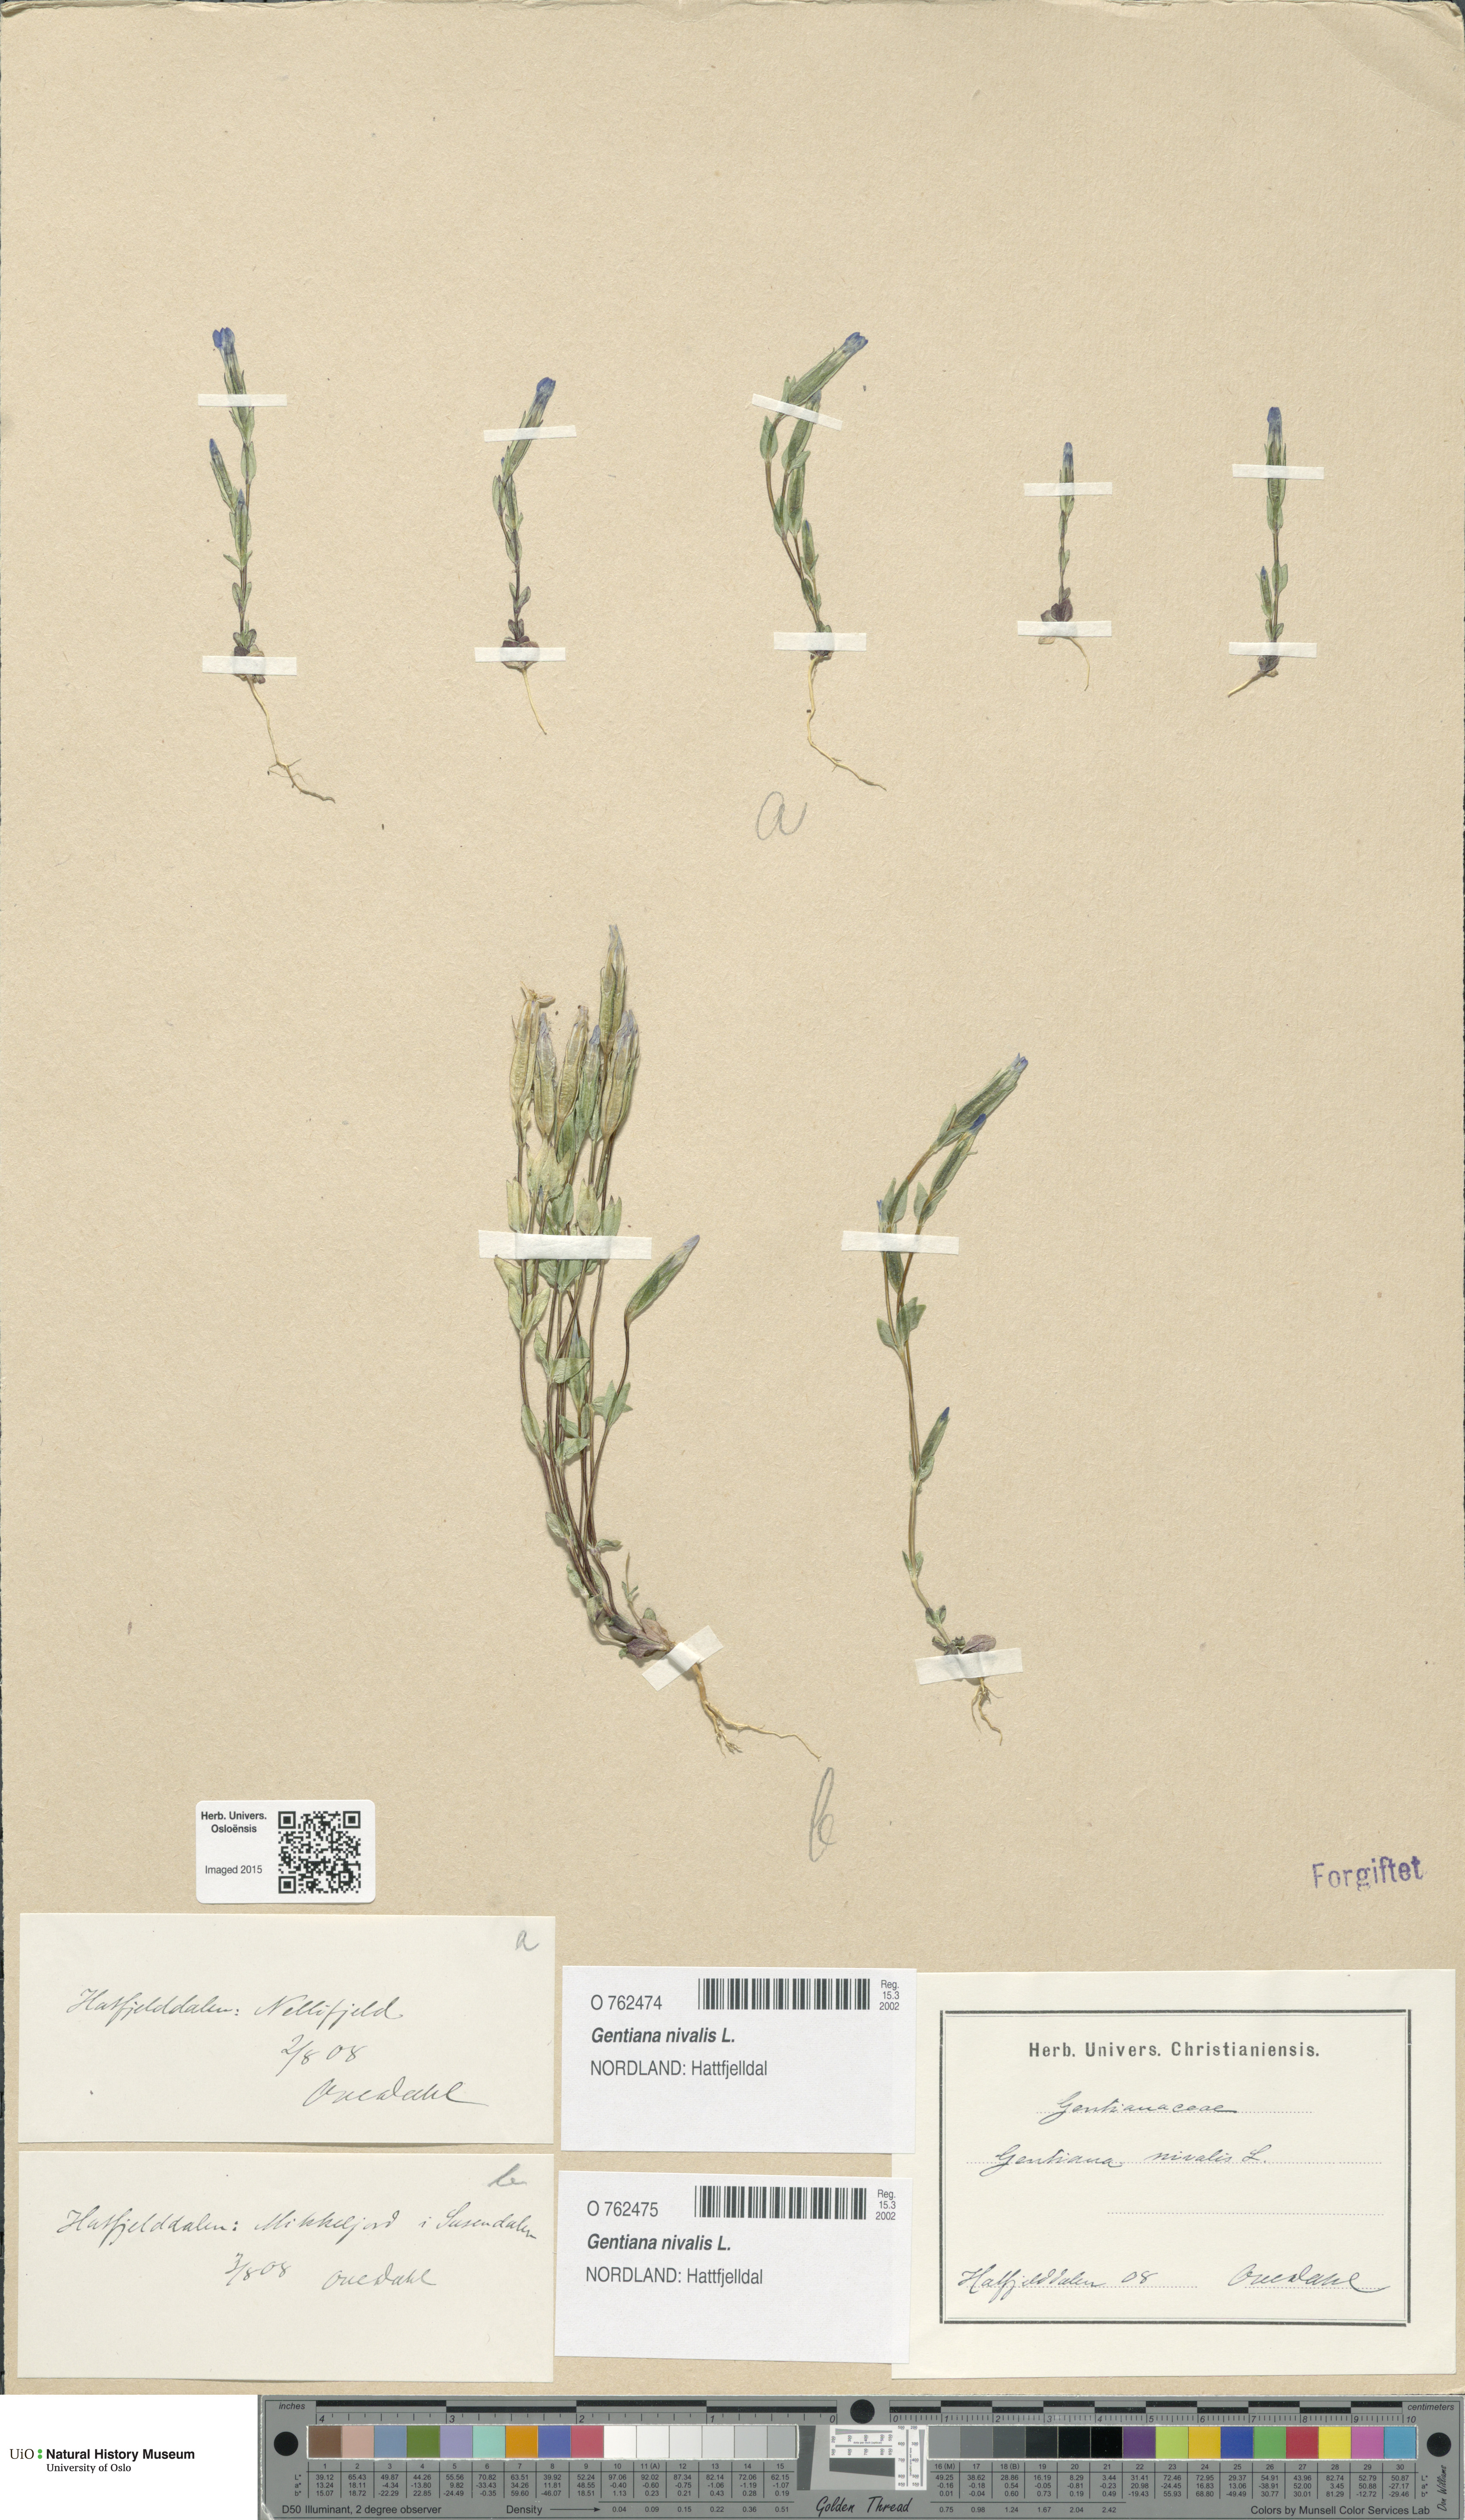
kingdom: Plantae
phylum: Tracheophyta
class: Magnoliopsida
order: Gentianales
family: Gentianaceae
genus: Gentiana
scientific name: Gentiana nivalis
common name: Alpine gentian
